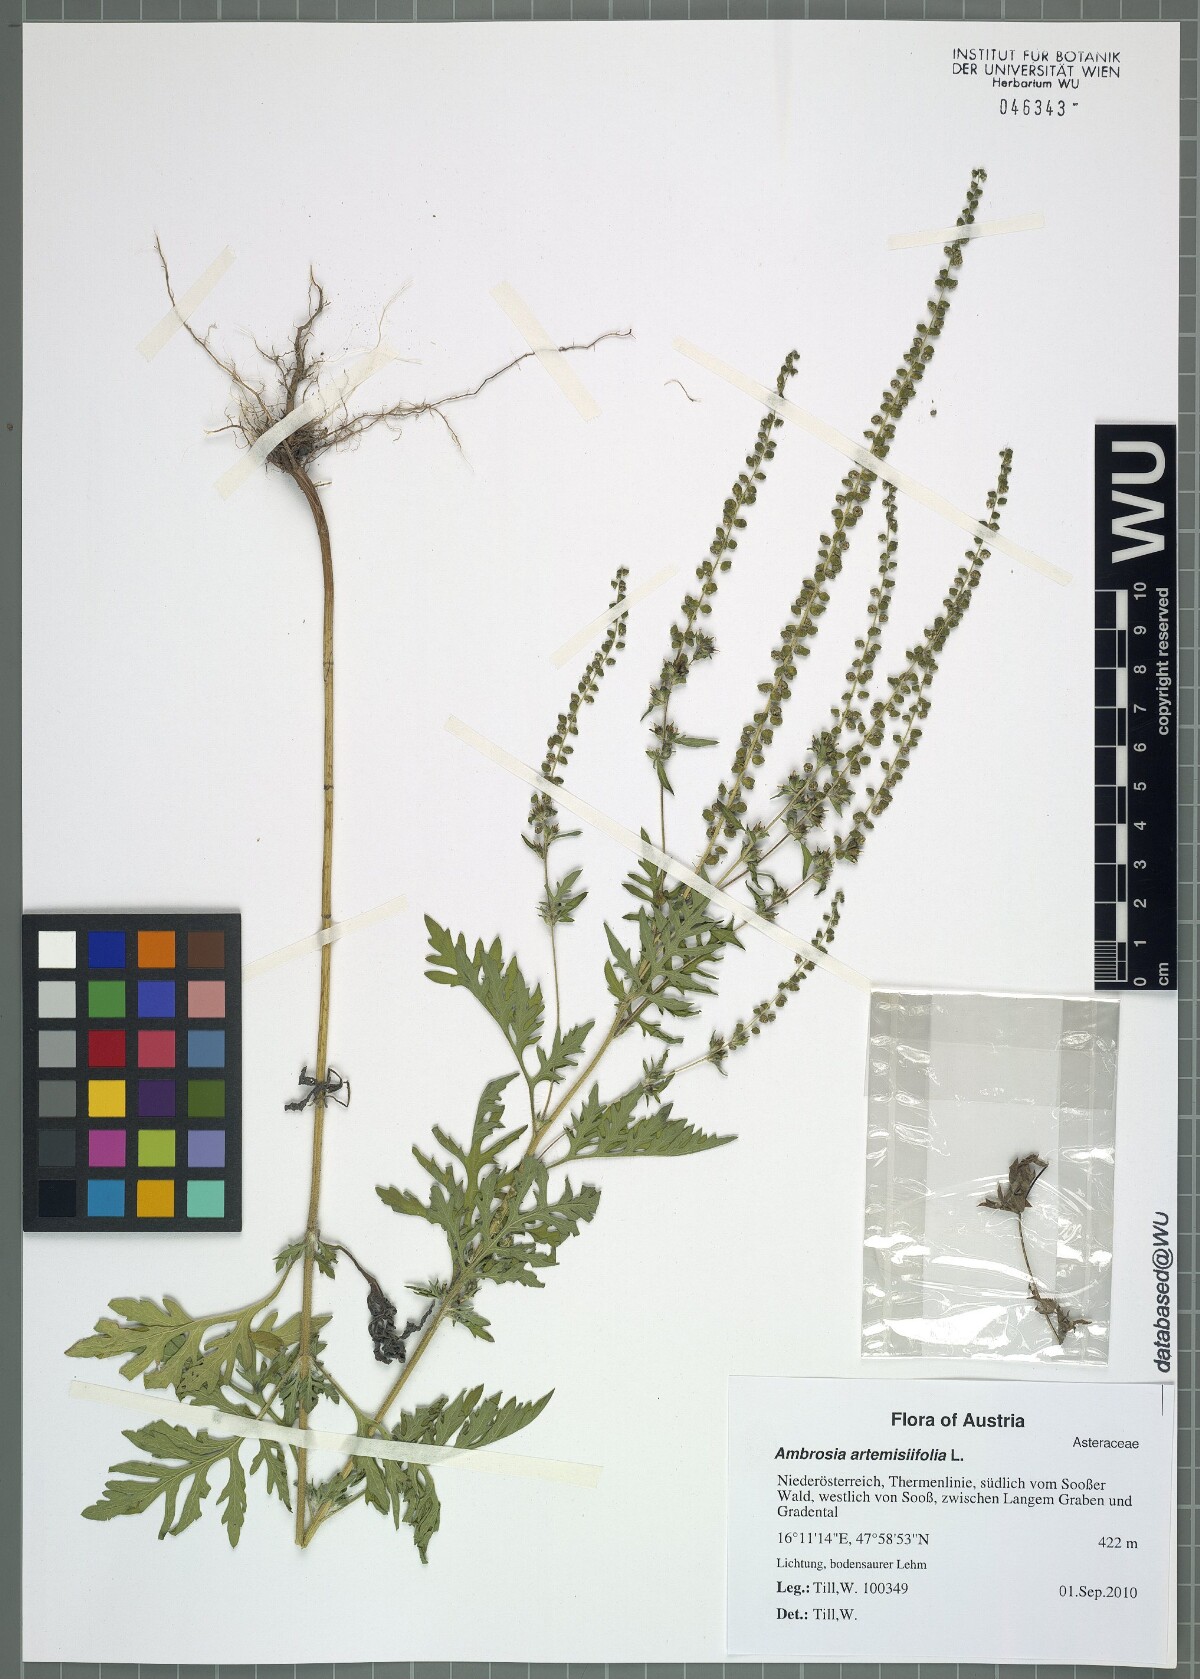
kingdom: Plantae
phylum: Tracheophyta
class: Magnoliopsida
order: Asterales
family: Asteraceae
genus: Ambrosia
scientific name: Ambrosia artemisiifolia
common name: Annual ragweed
